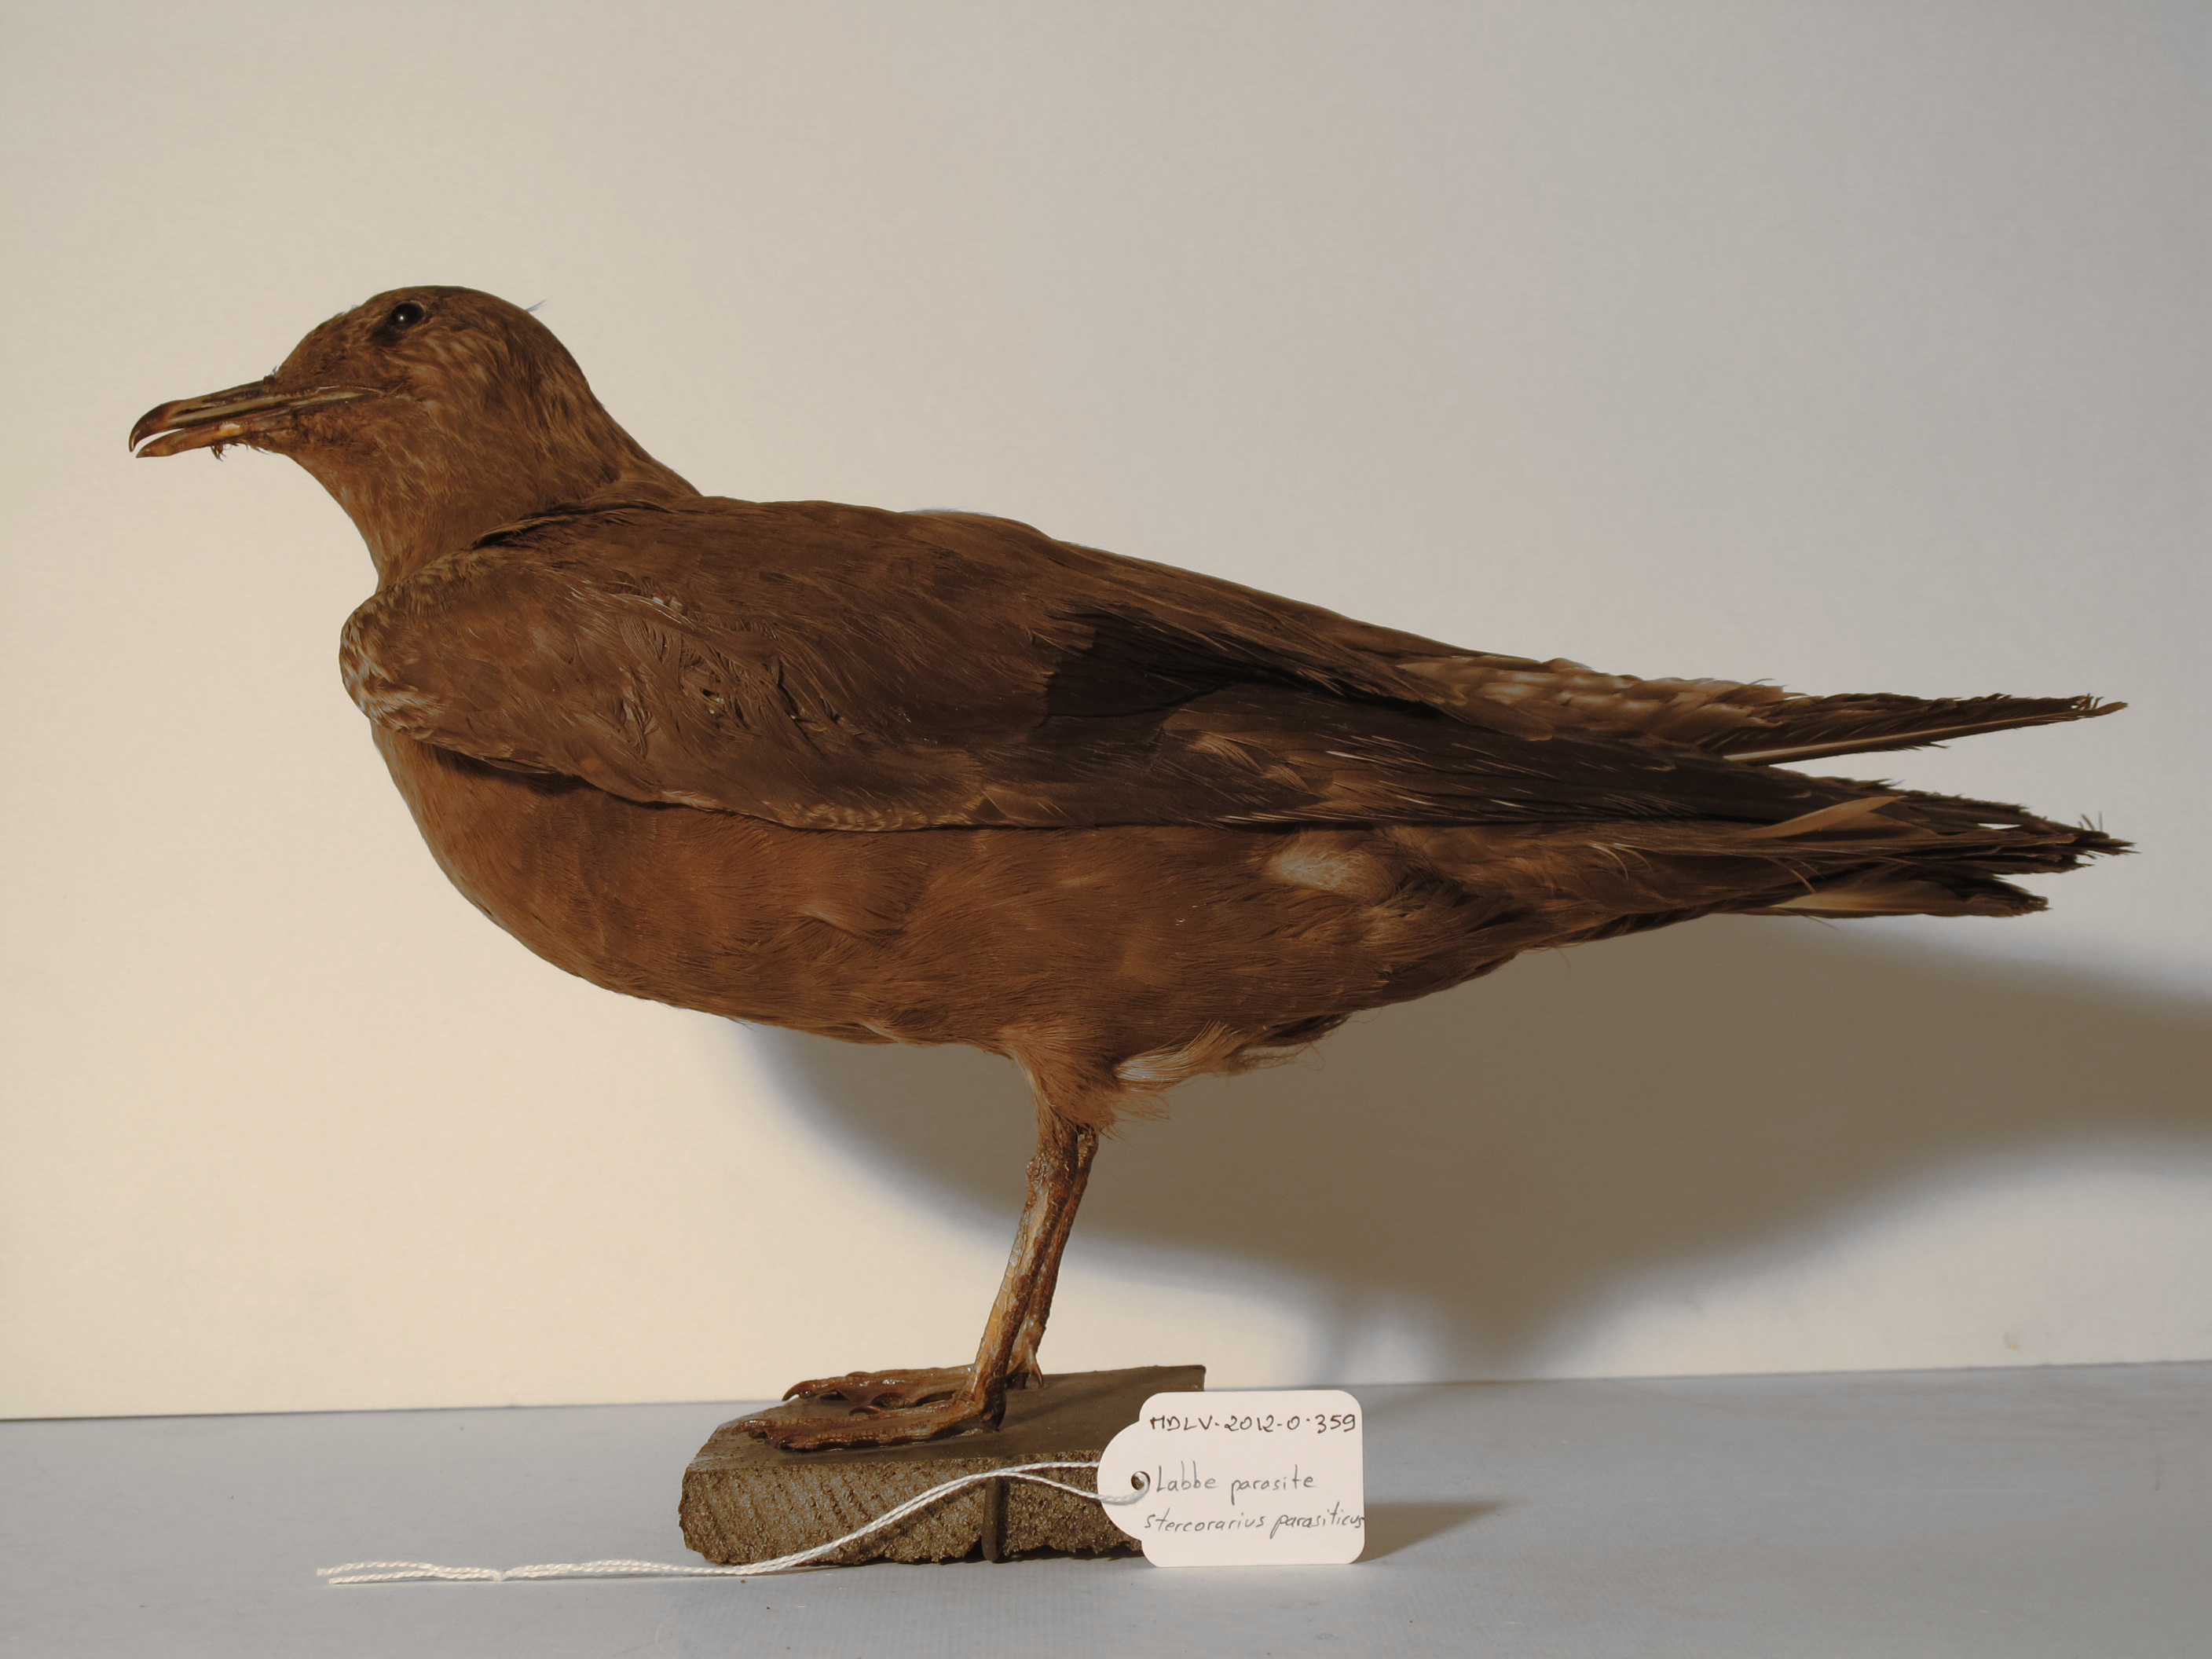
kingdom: Animalia
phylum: Chordata
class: Aves
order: Charadriiformes
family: Stercorariidae
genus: Stercorarius
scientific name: Stercorarius parasiticus
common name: Arctic Skua
